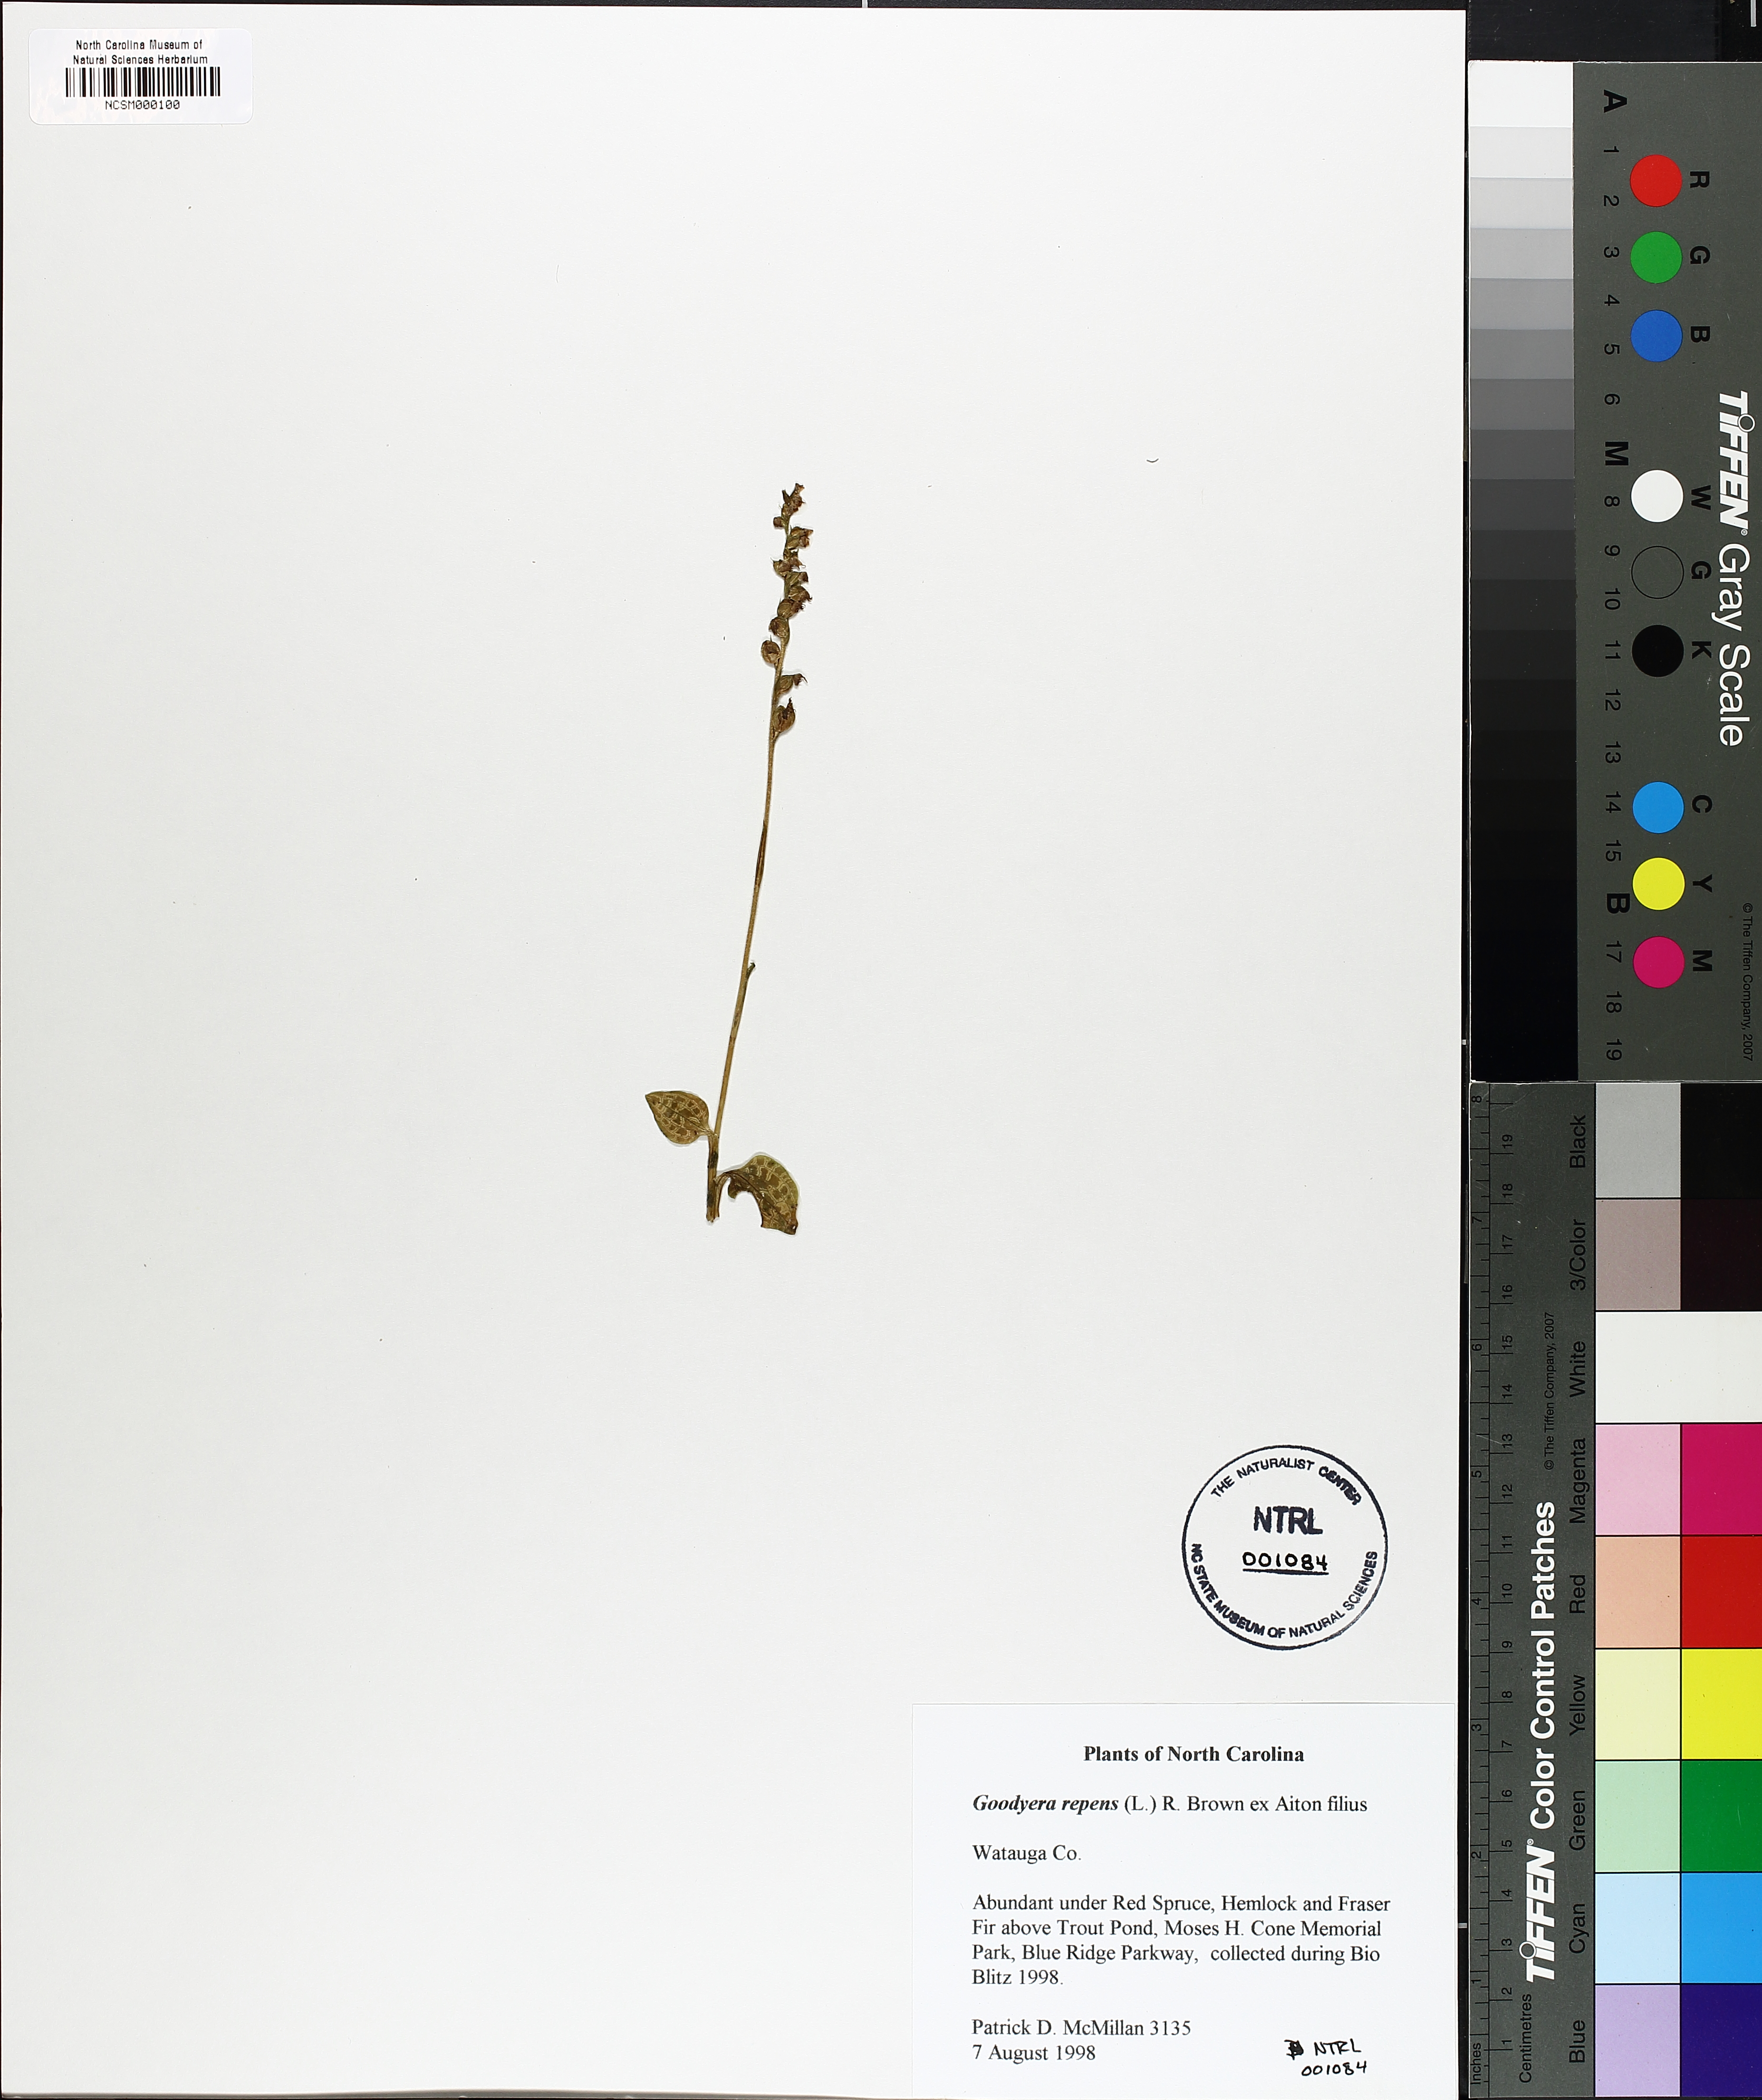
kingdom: Plantae
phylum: Tracheophyta
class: Liliopsida
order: Asparagales
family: Orchidaceae
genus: Goodyera
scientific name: Goodyera repens
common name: Creeping lady's-tresses
